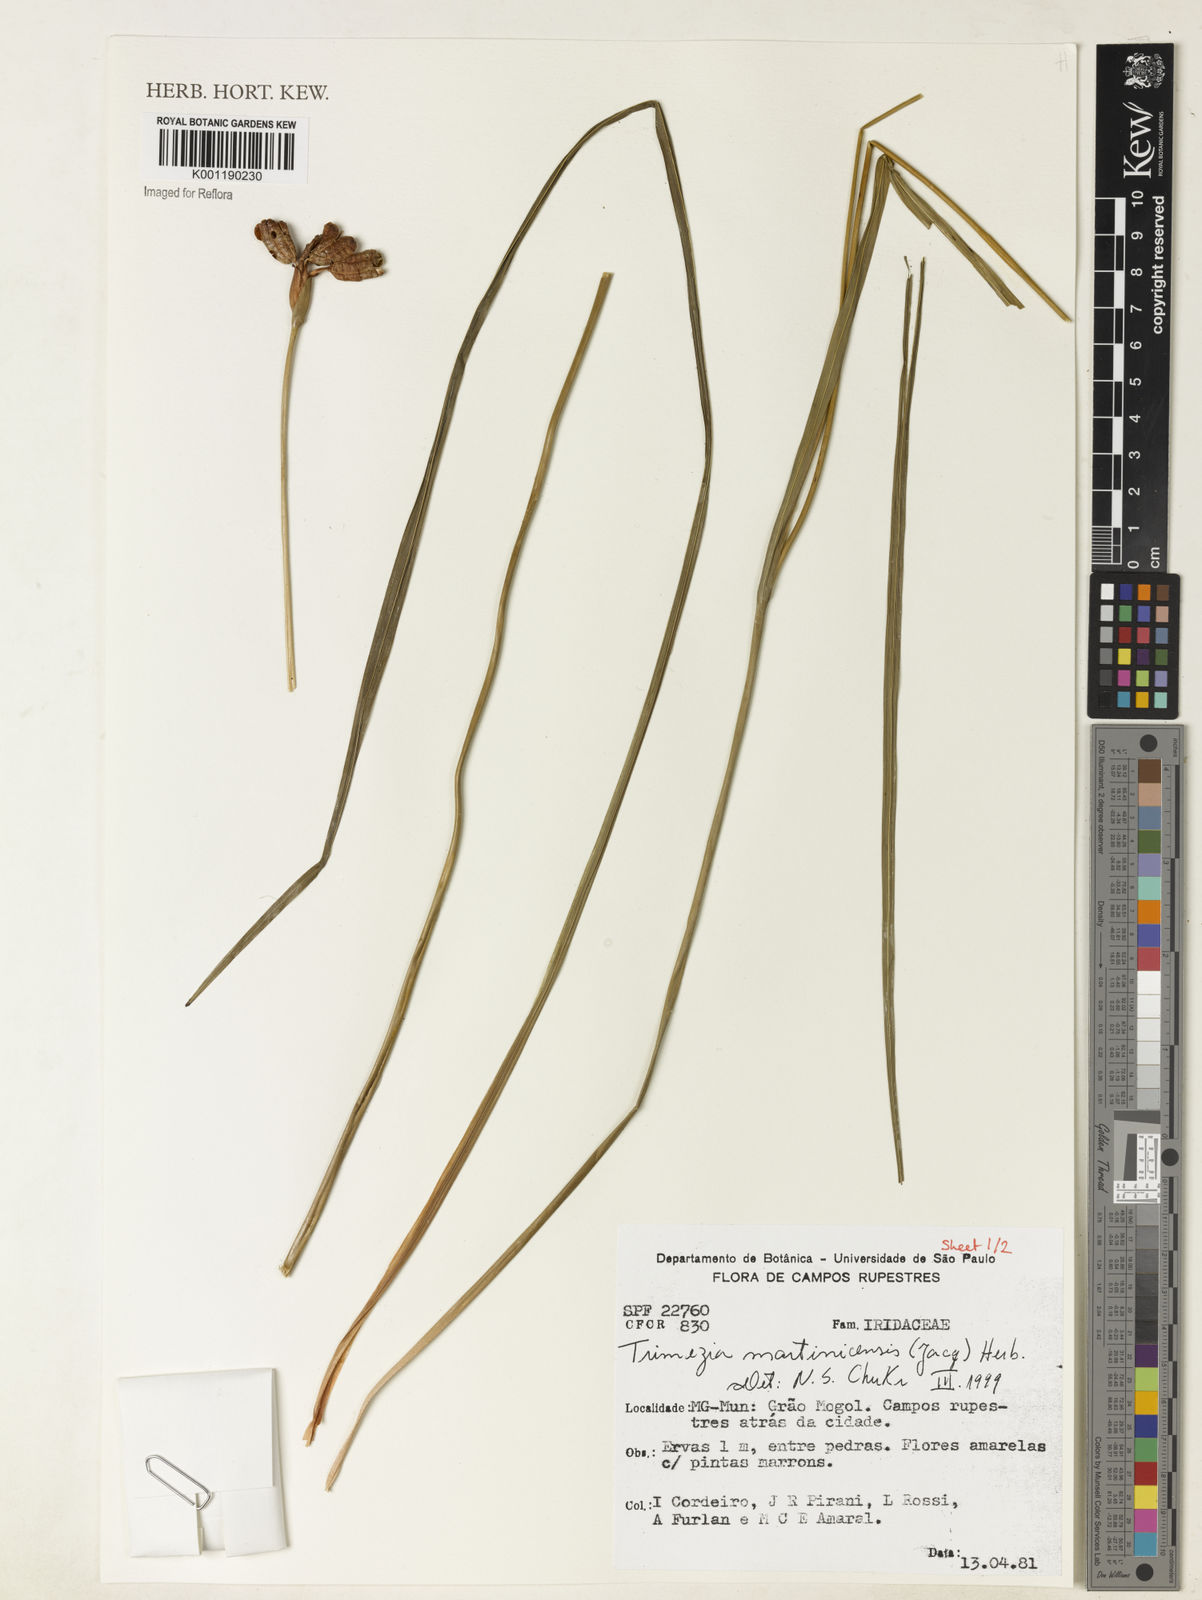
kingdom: Plantae
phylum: Tracheophyta
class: Liliopsida
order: Asparagales
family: Iridaceae
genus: Trimezia
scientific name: Trimezia martinicensis
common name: Martinique trimezia
